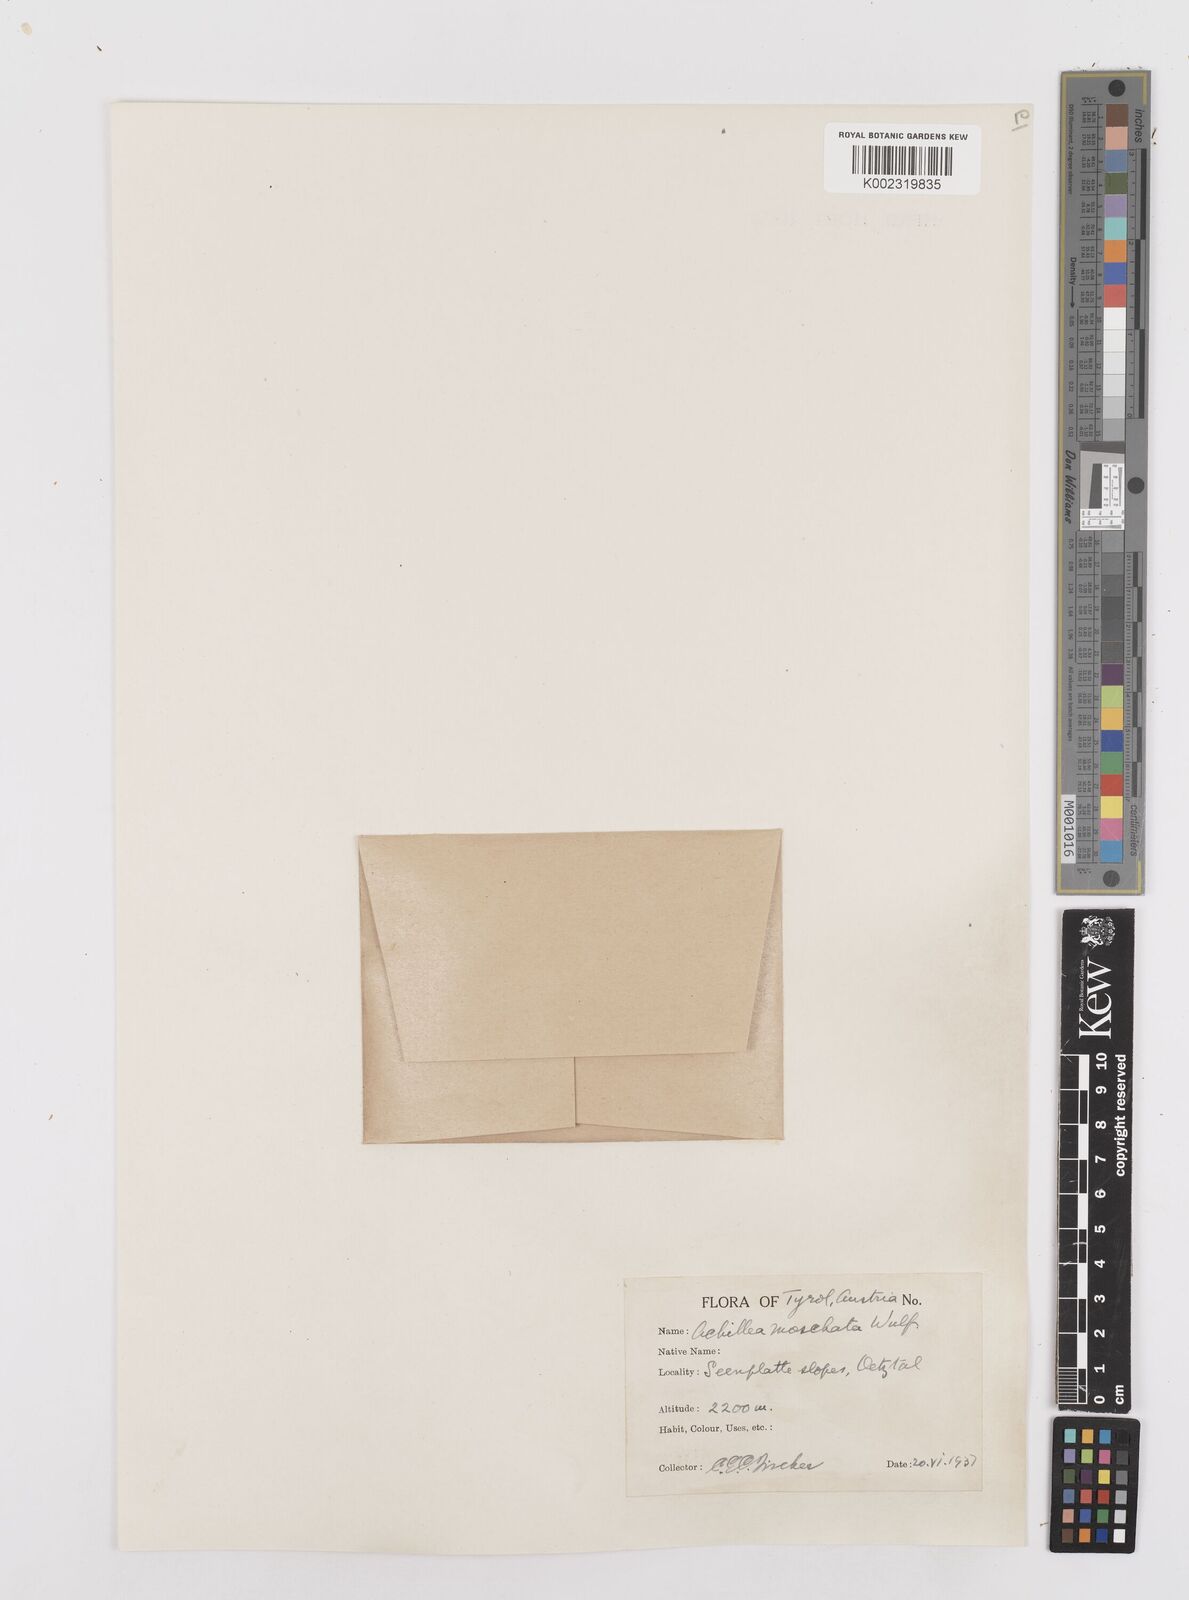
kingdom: Plantae
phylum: Tracheophyta
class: Magnoliopsida
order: Asterales
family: Asteraceae
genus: Achillea
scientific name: Achillea erba-rotta
